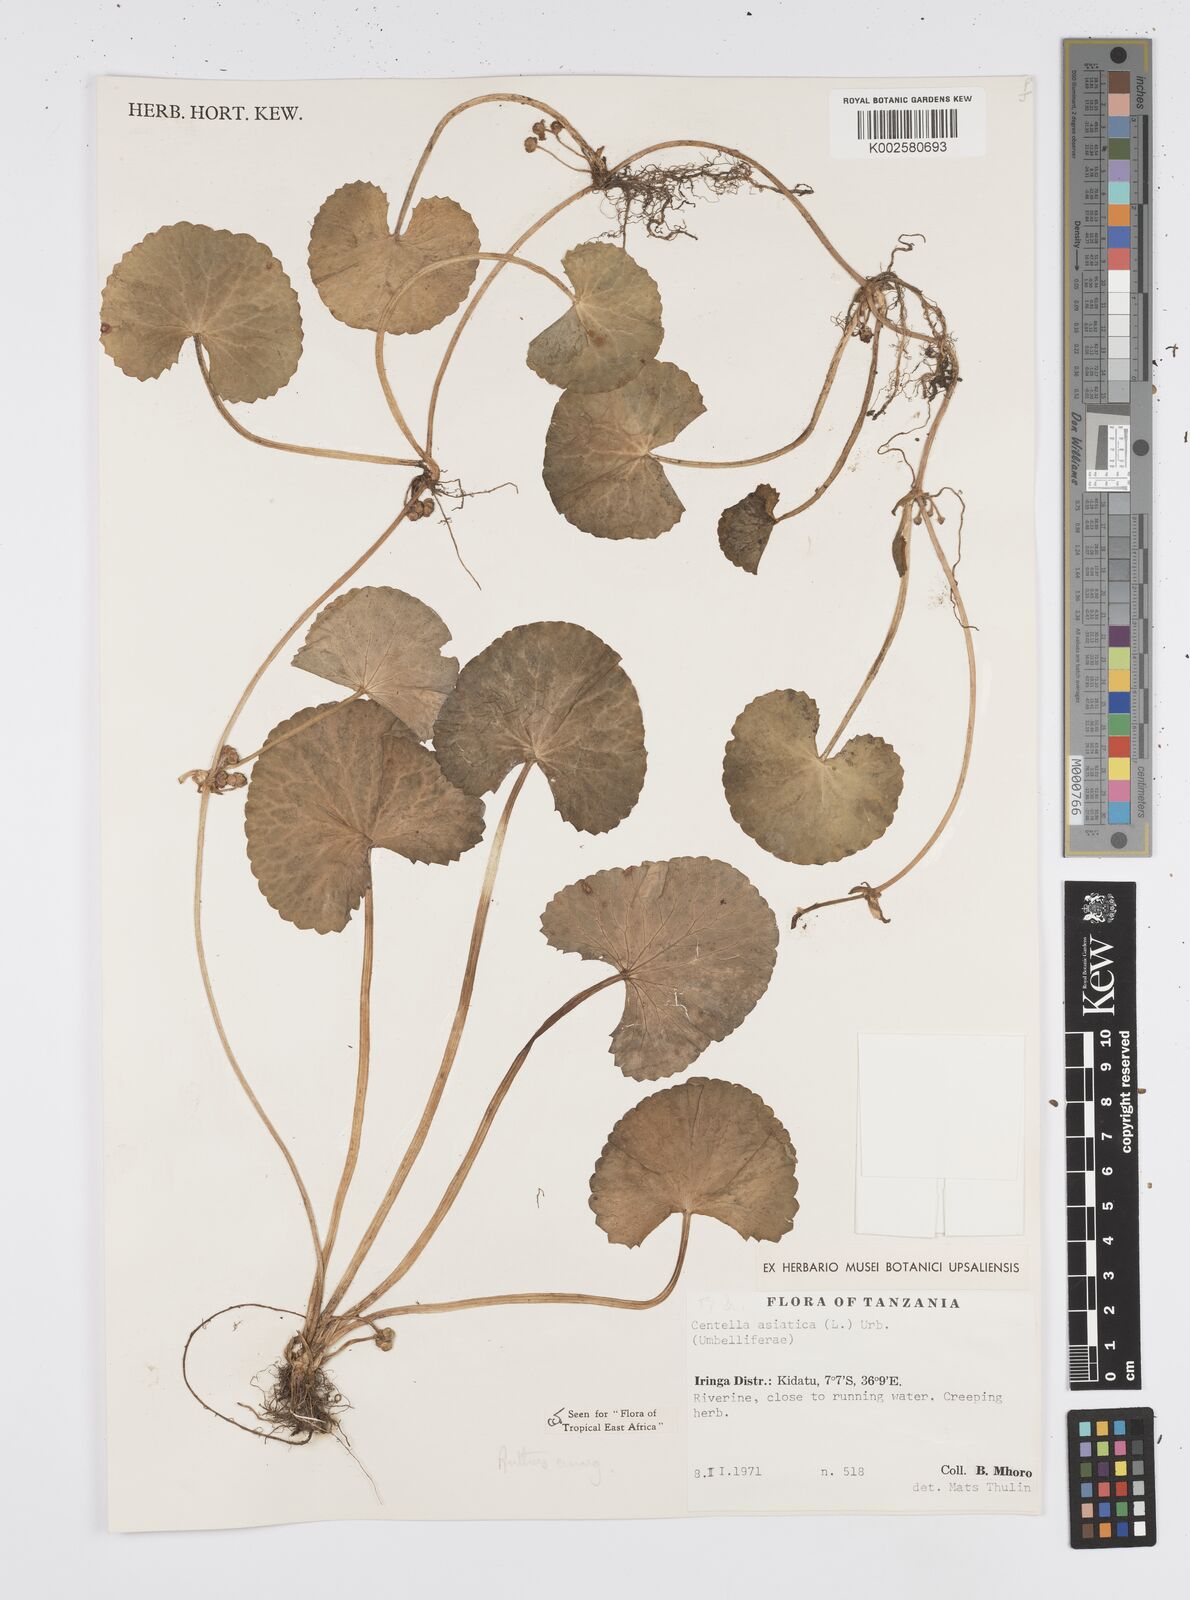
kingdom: Plantae
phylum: Tracheophyta
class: Magnoliopsida
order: Apiales
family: Apiaceae
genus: Centella
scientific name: Centella asiatica
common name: Spadeleaf
